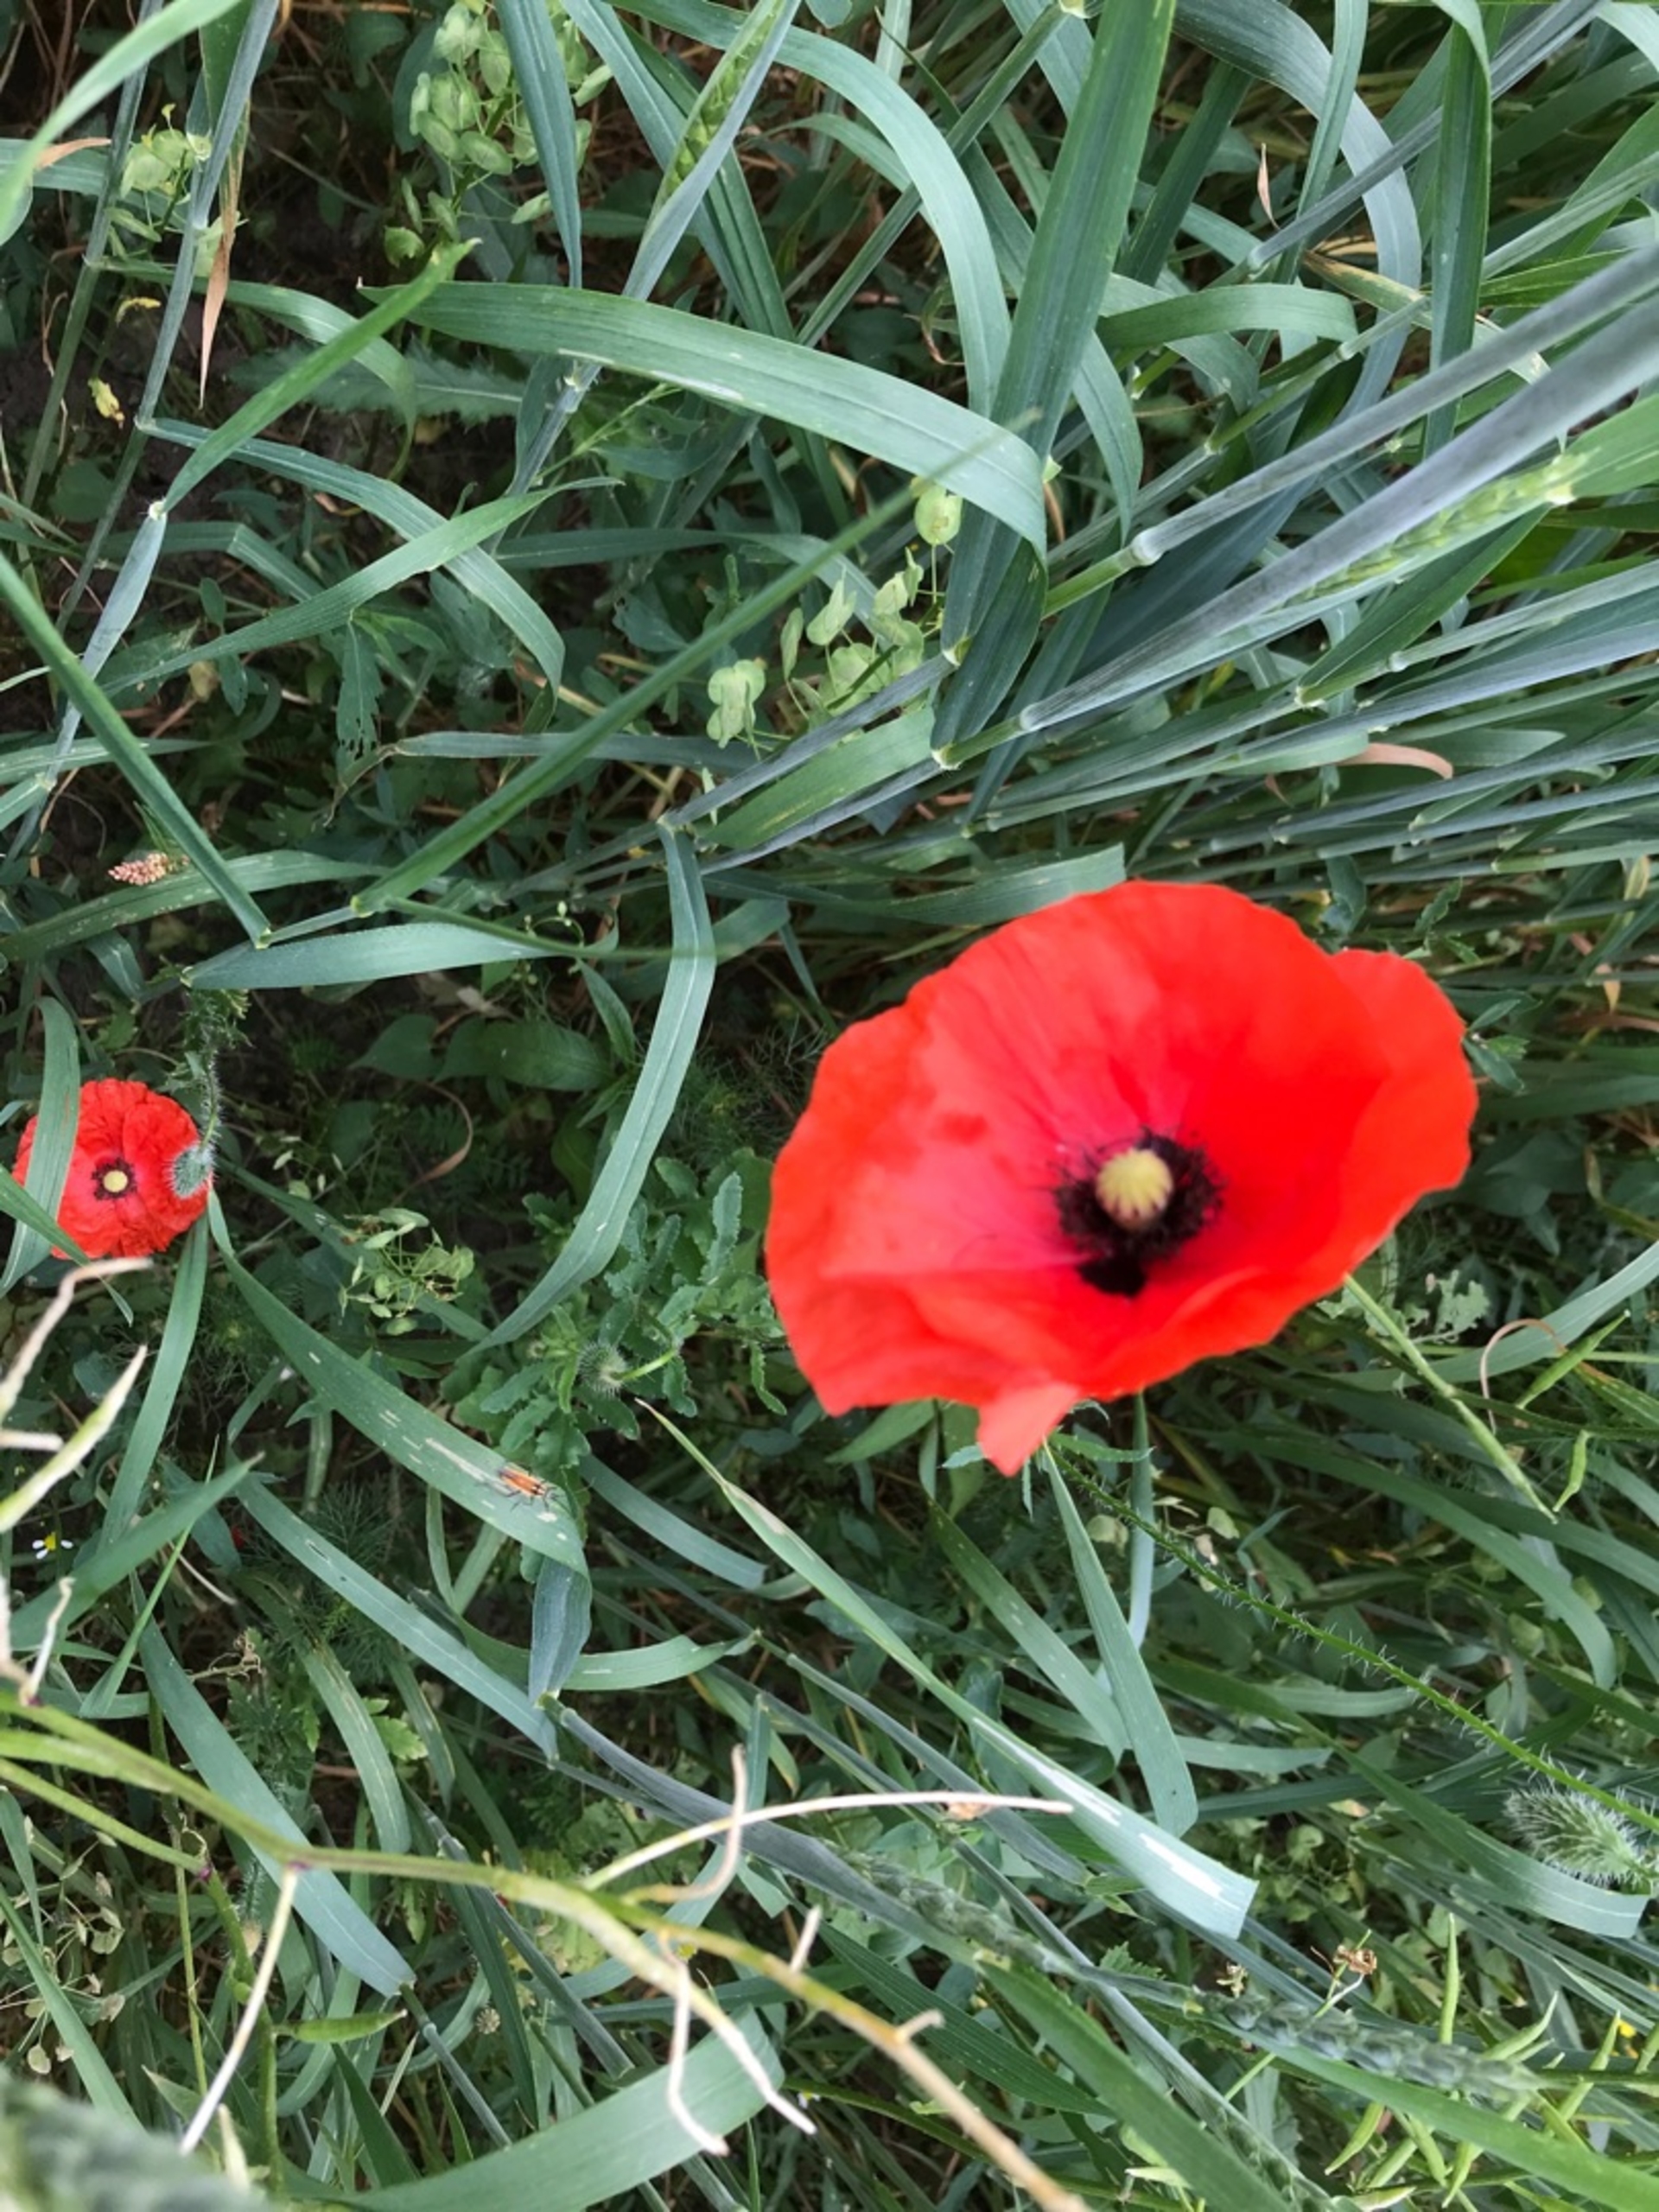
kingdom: Plantae
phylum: Tracheophyta
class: Magnoliopsida
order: Ranunculales
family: Papaveraceae
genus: Papaver
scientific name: Papaver rhoeas
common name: Korn-valmue
